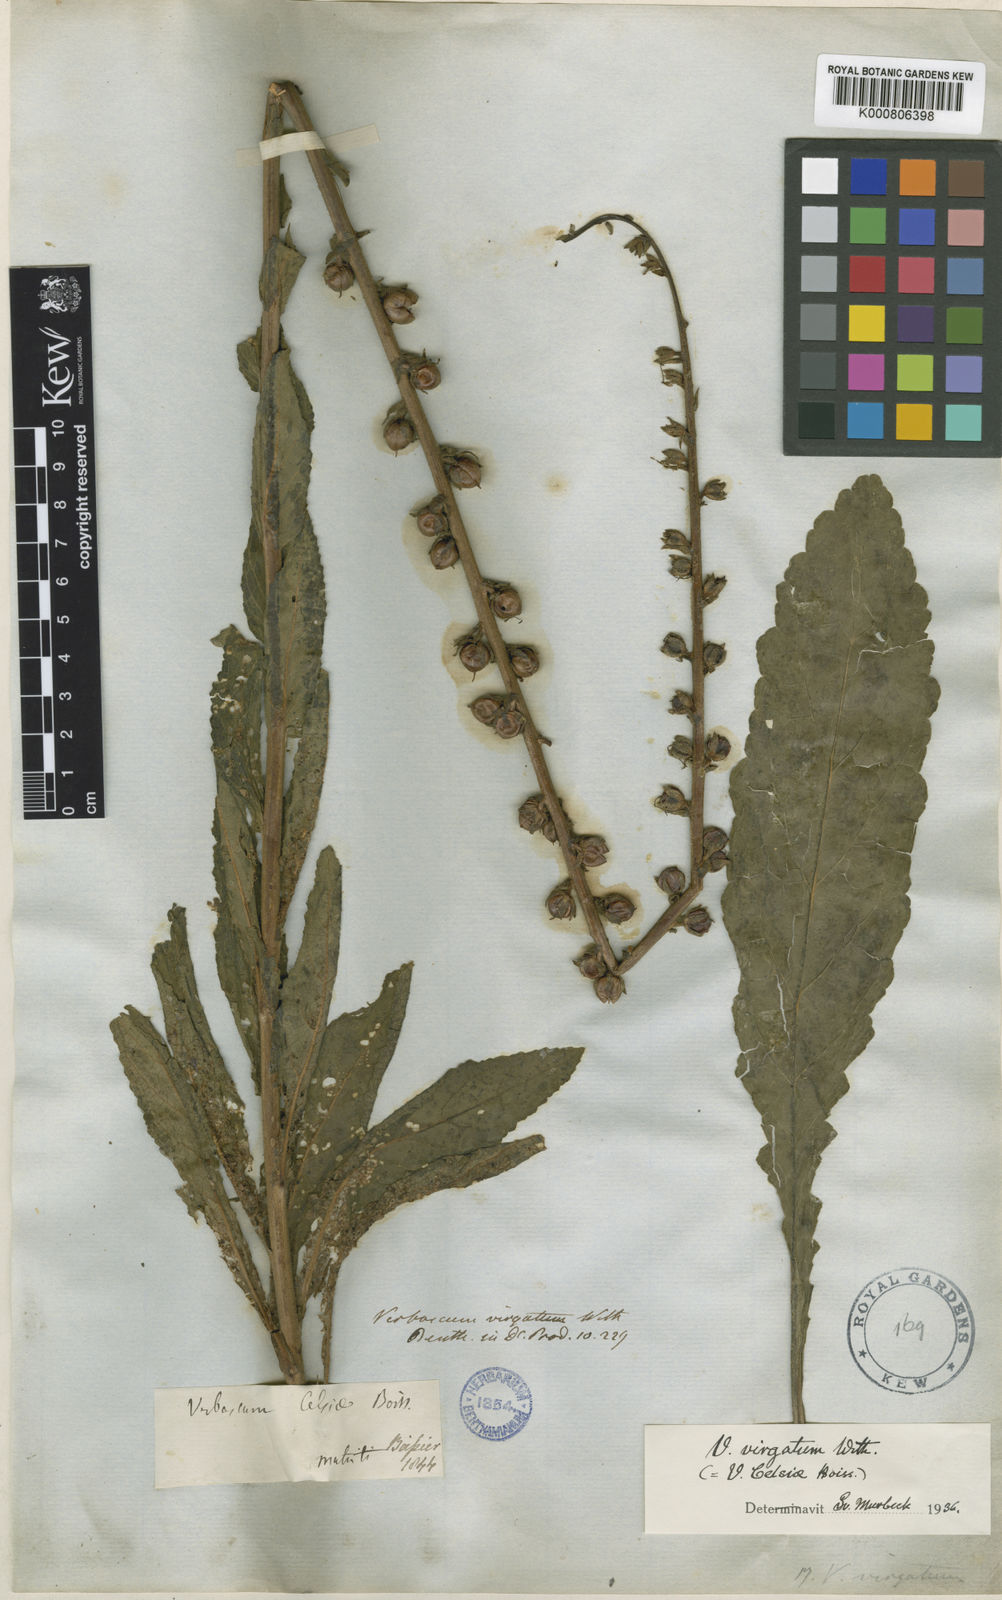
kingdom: Plantae
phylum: Tracheophyta
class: Magnoliopsida
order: Lamiales
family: Scrophulariaceae
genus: Verbascum
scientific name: Verbascum
